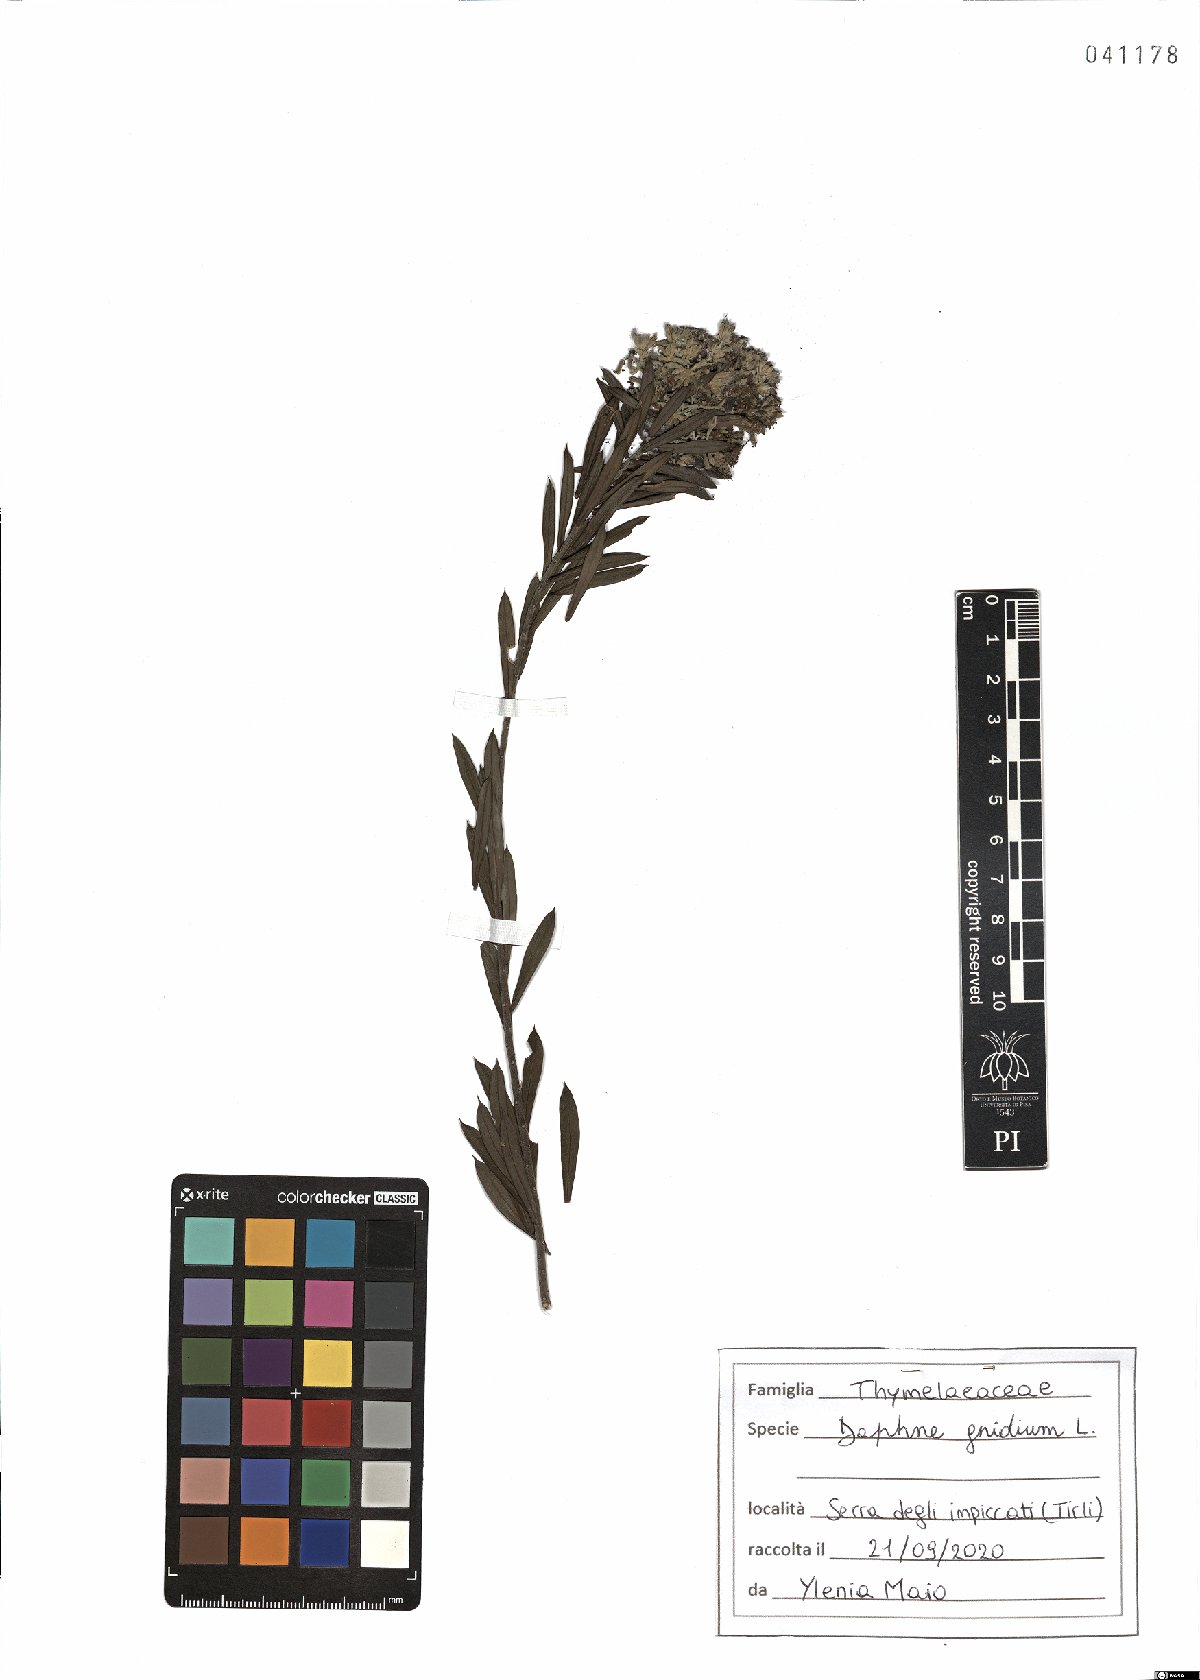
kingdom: Plantae
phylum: Tracheophyta
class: Magnoliopsida
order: Malvales
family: Thymelaeaceae
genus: Daphne
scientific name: Daphne gnidium
